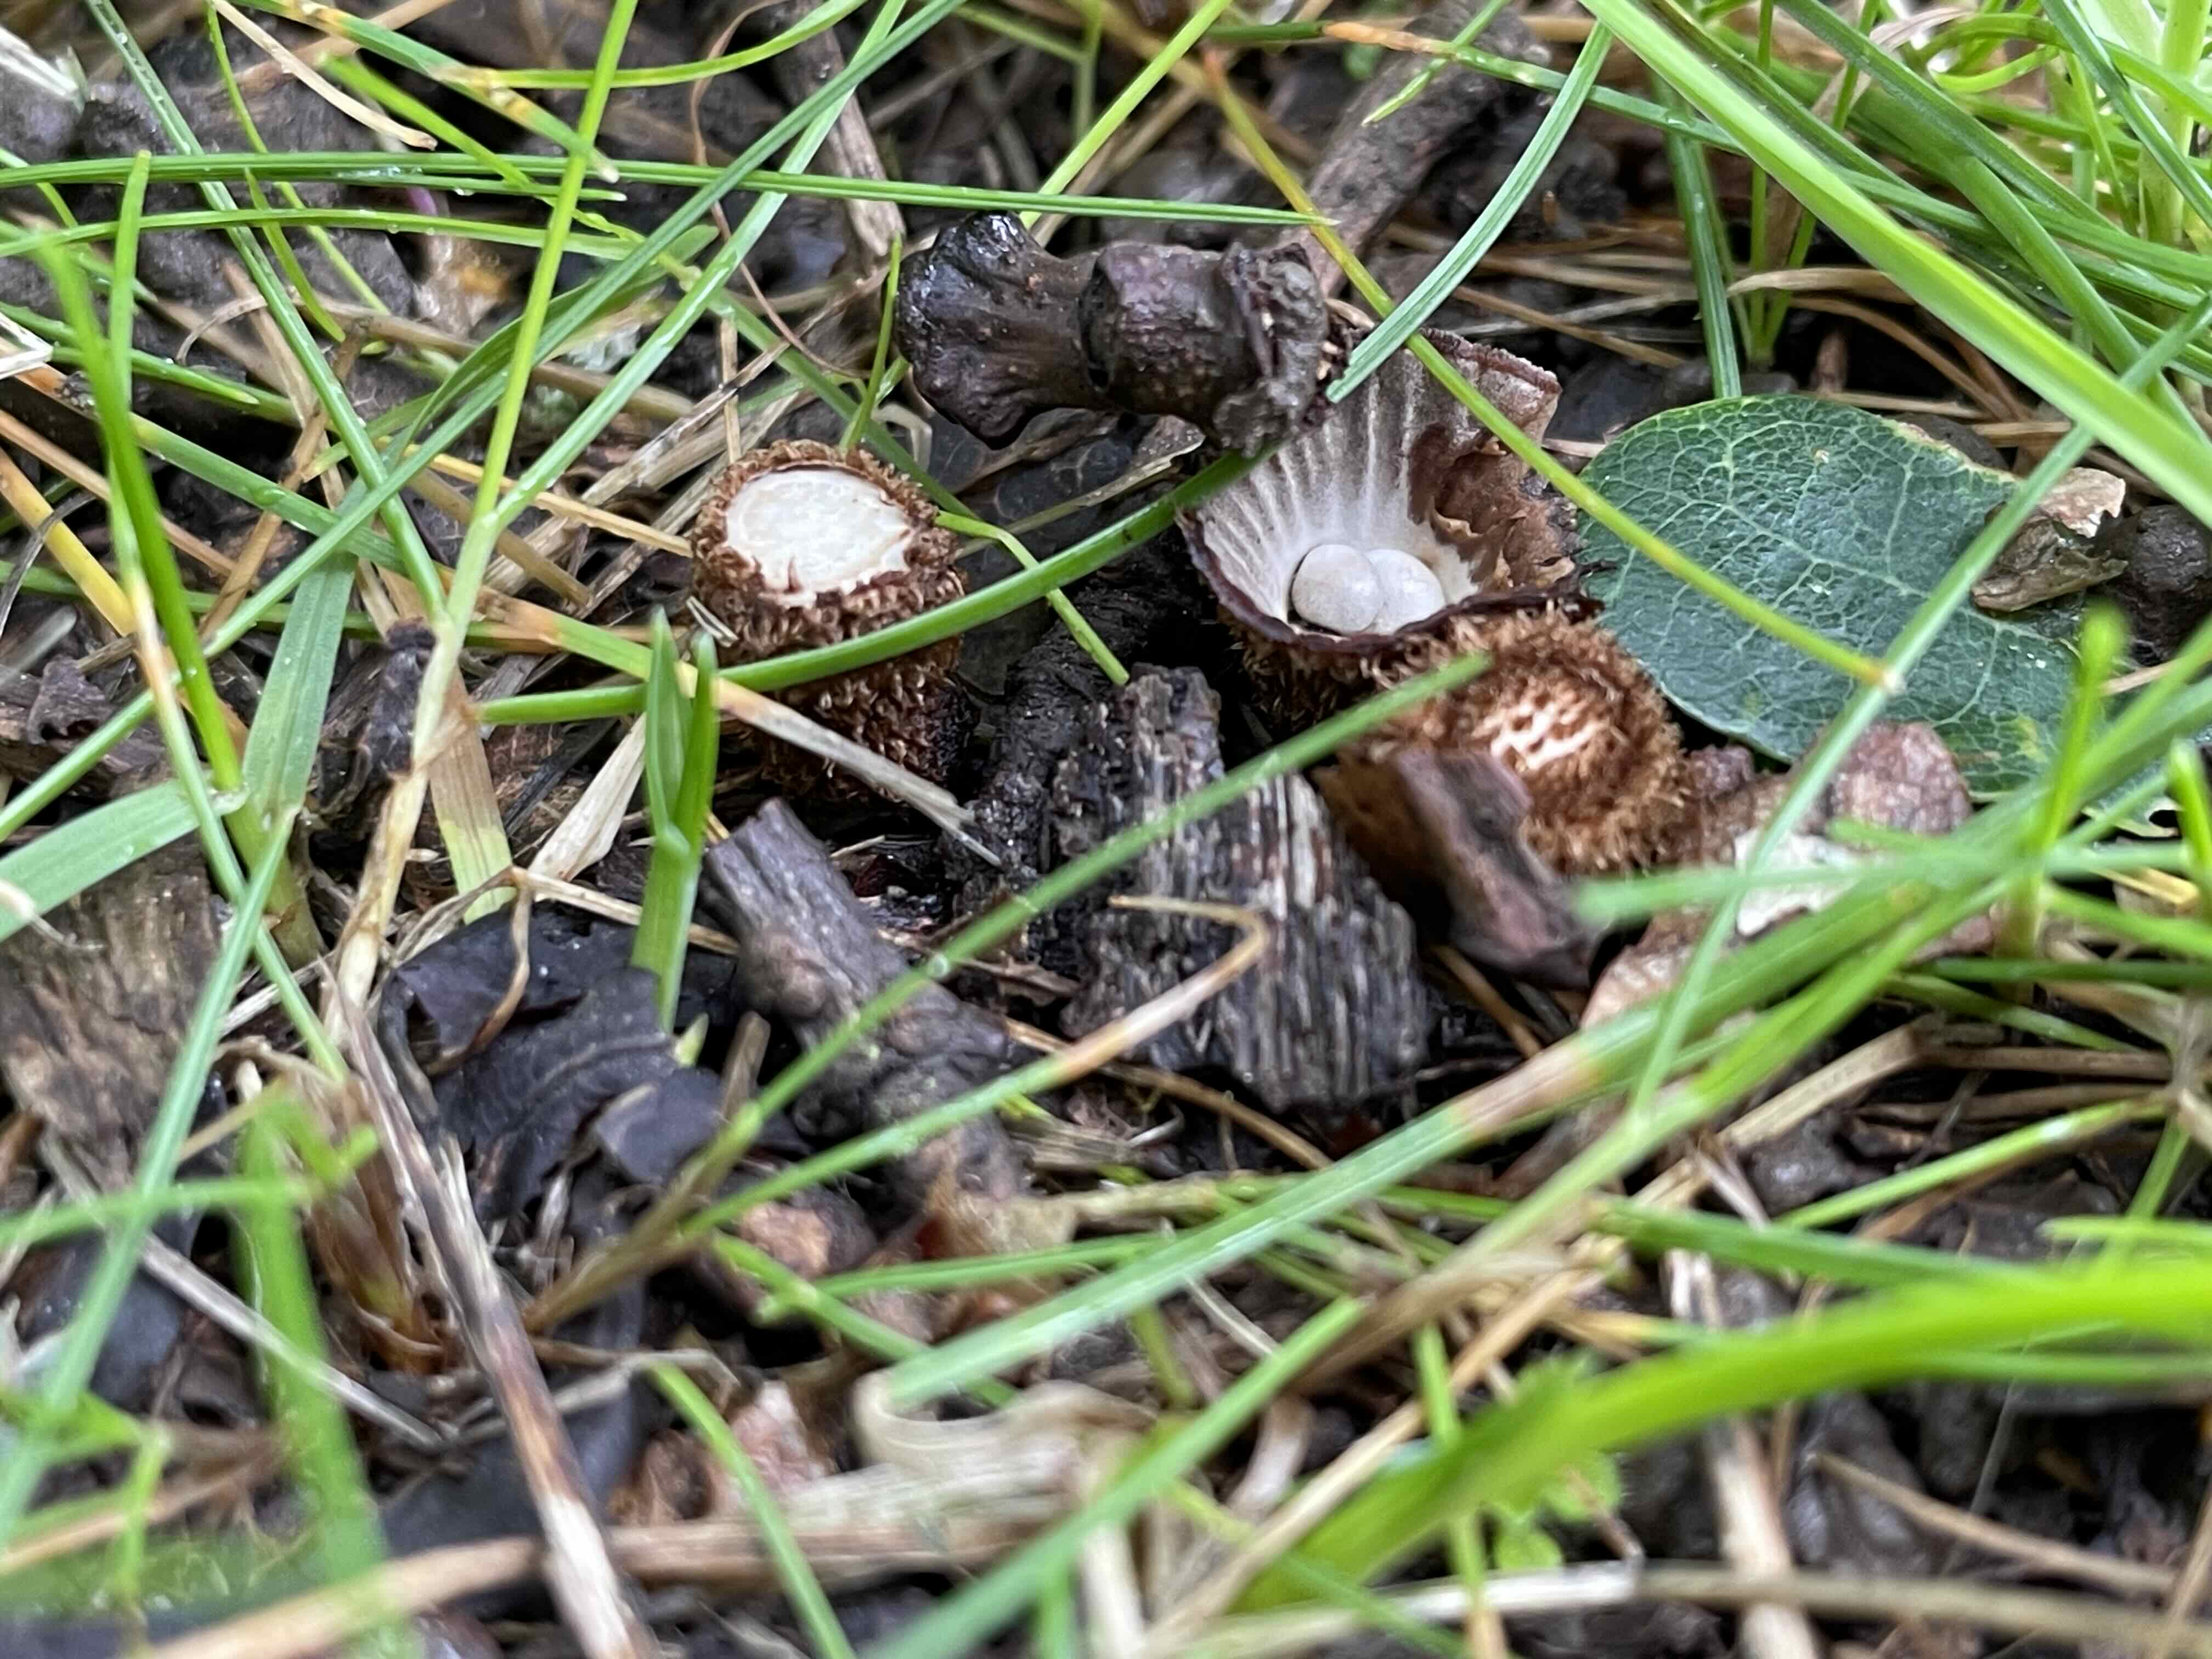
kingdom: Fungi
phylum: Basidiomycota
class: Agaricomycetes
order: Agaricales
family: Agaricaceae
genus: Cyathus
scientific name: Cyathus striatus
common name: stribet redesvamp
